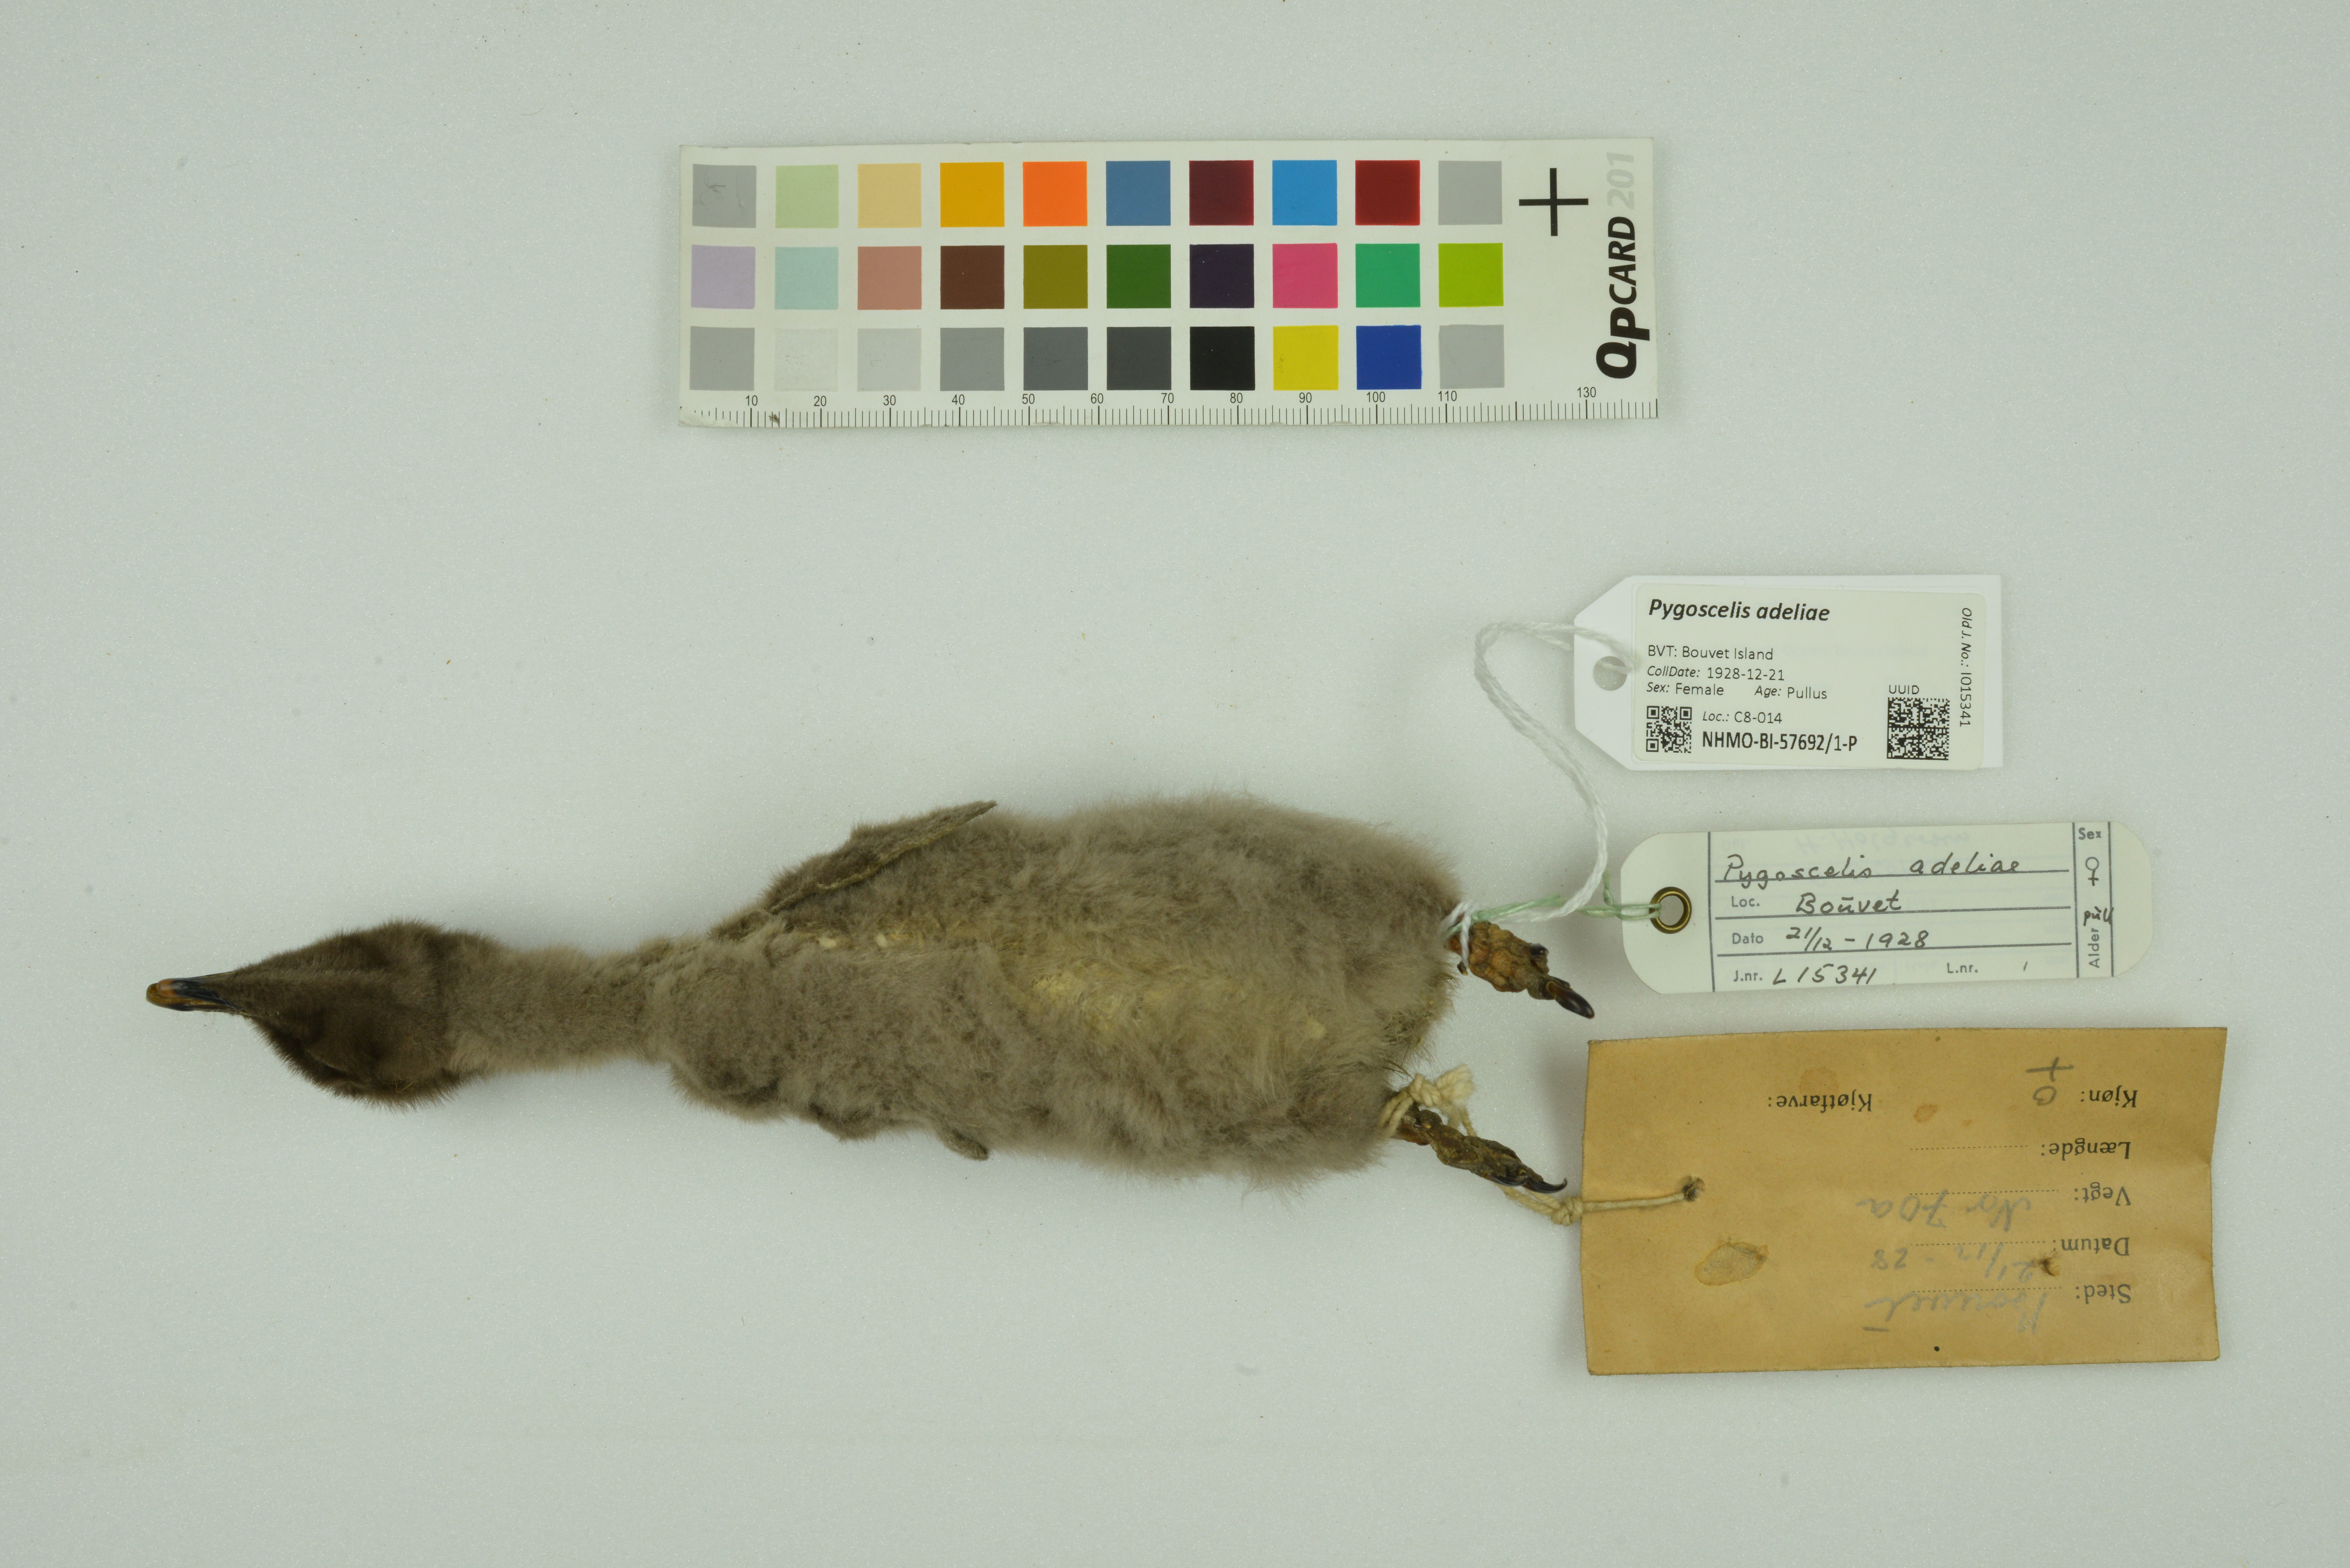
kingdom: Animalia
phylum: Chordata
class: Aves
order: Sphenisciformes
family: Spheniscidae
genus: Pygoscelis
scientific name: Pygoscelis adeliae
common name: Adelie penguin
